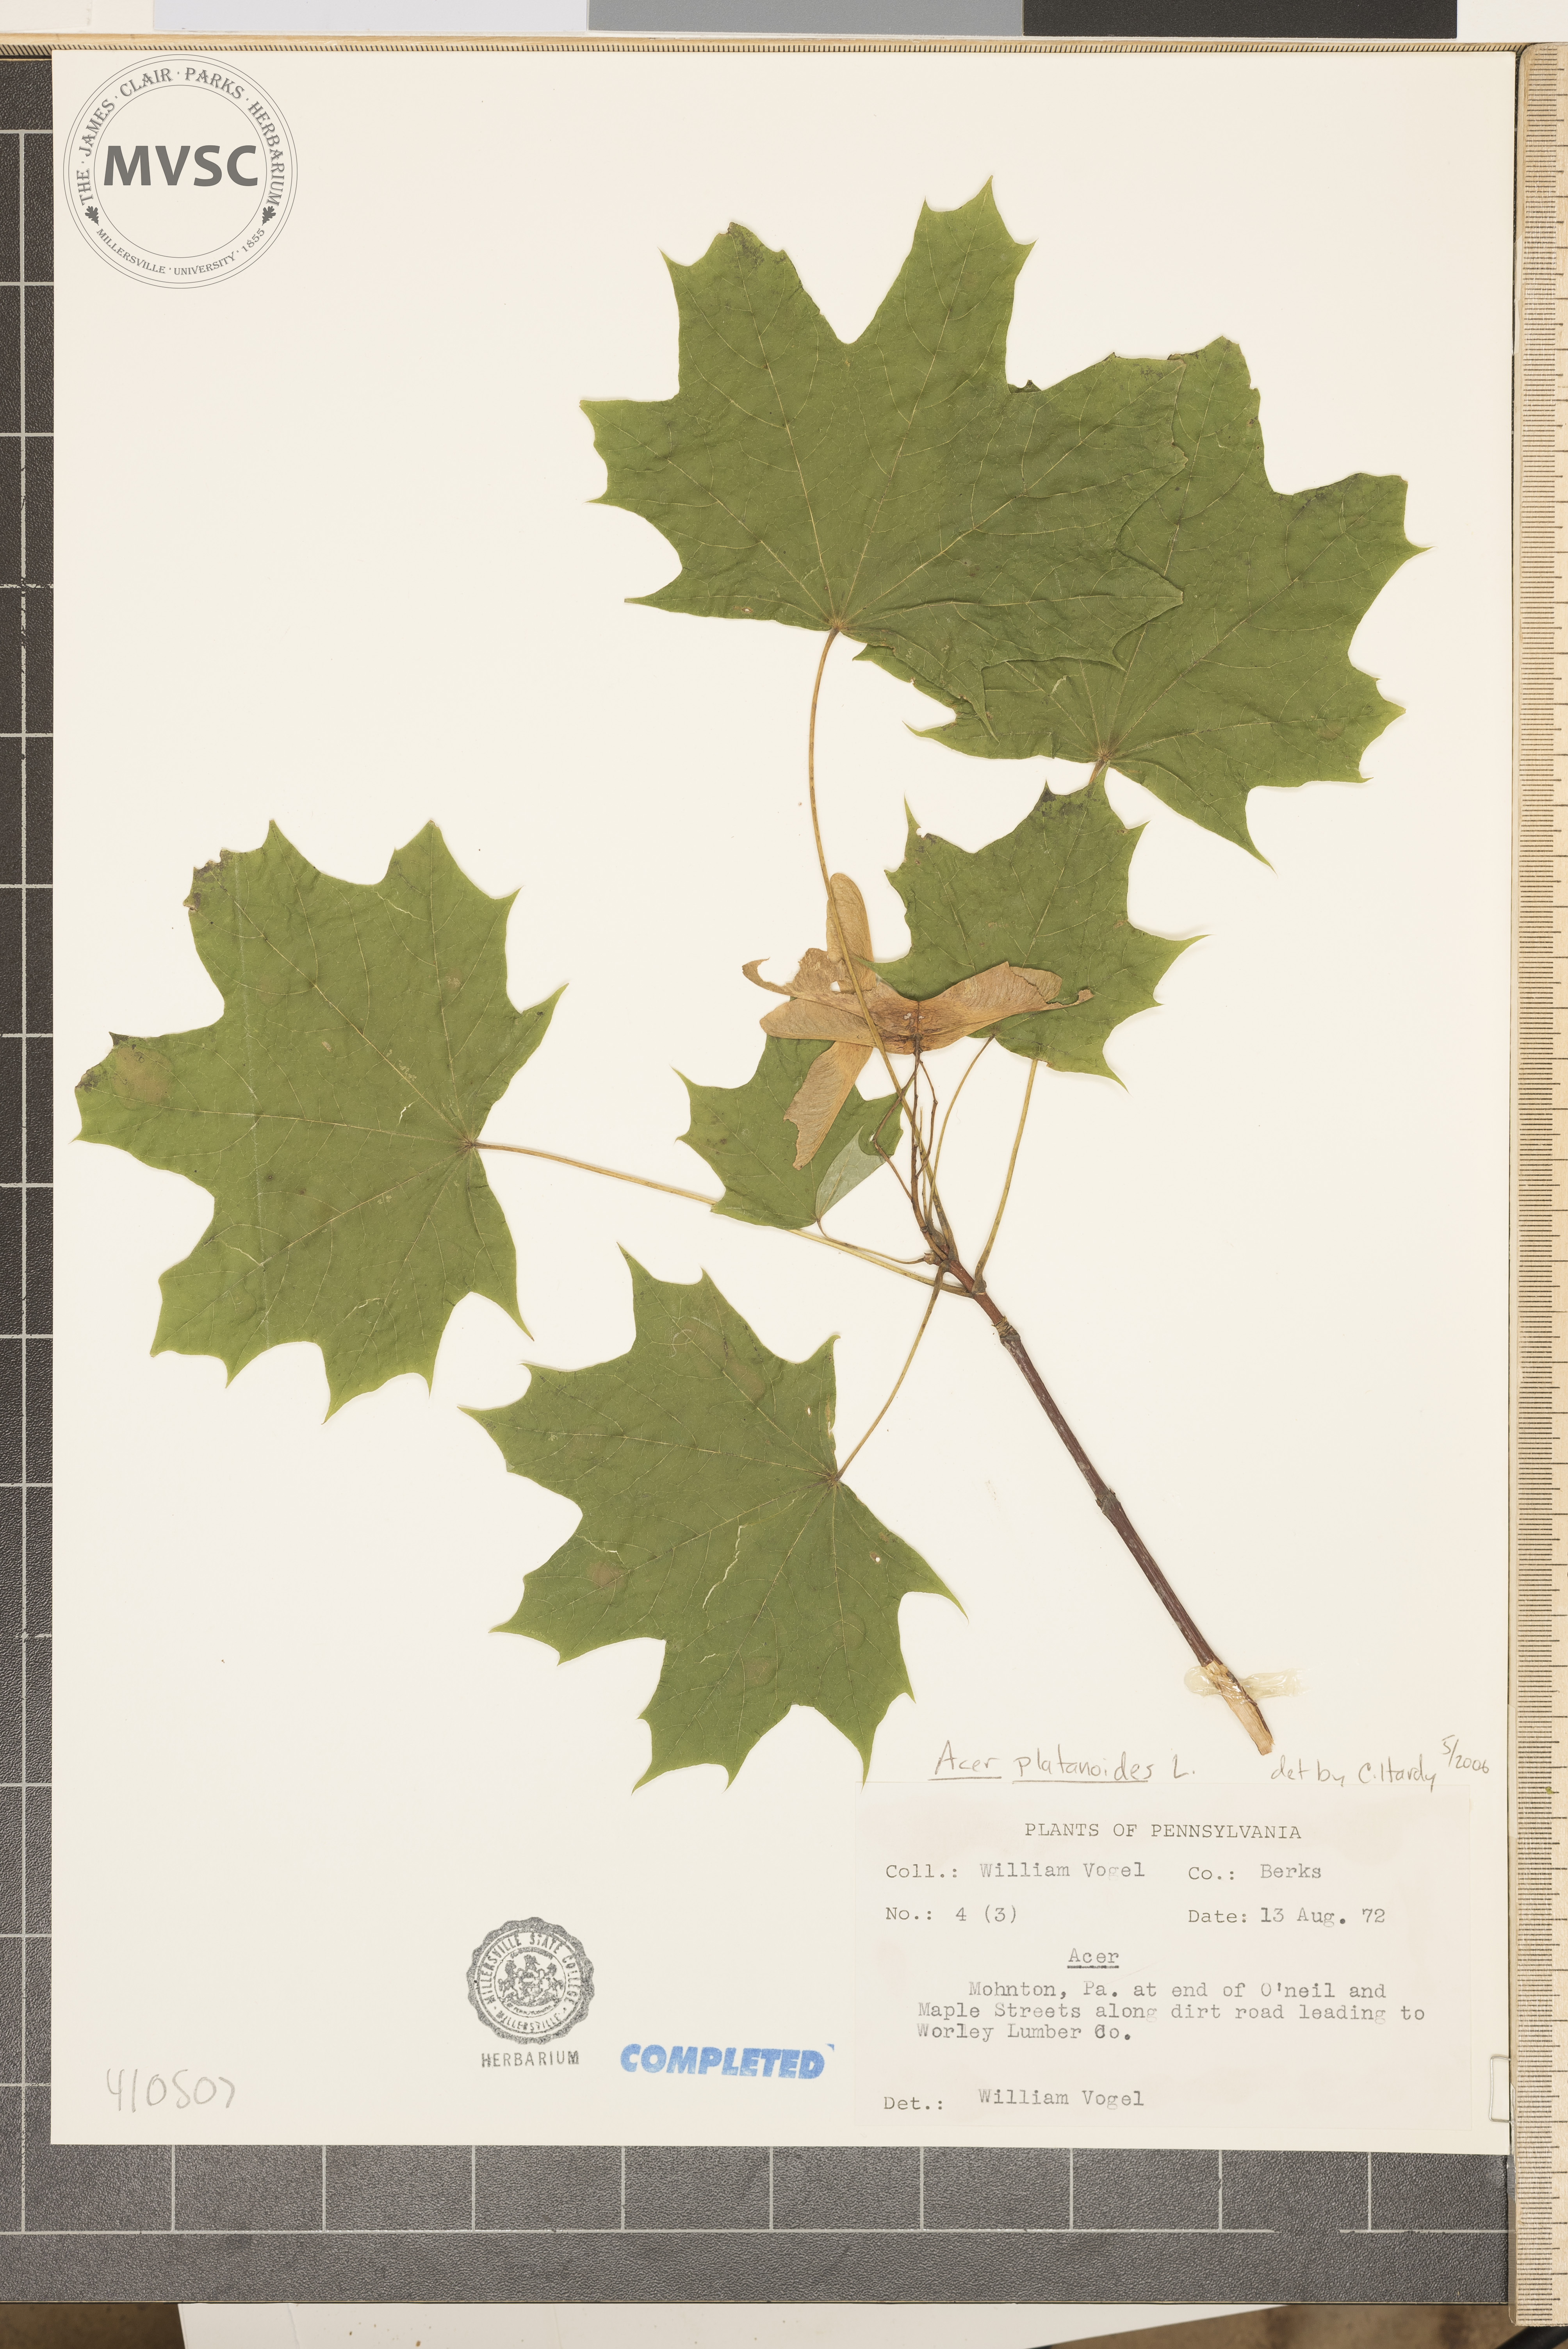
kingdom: Plantae
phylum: Tracheophyta
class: Magnoliopsida
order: Sapindales
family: Sapindaceae
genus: Acer
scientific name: Acer platanoides
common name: Norway maple
